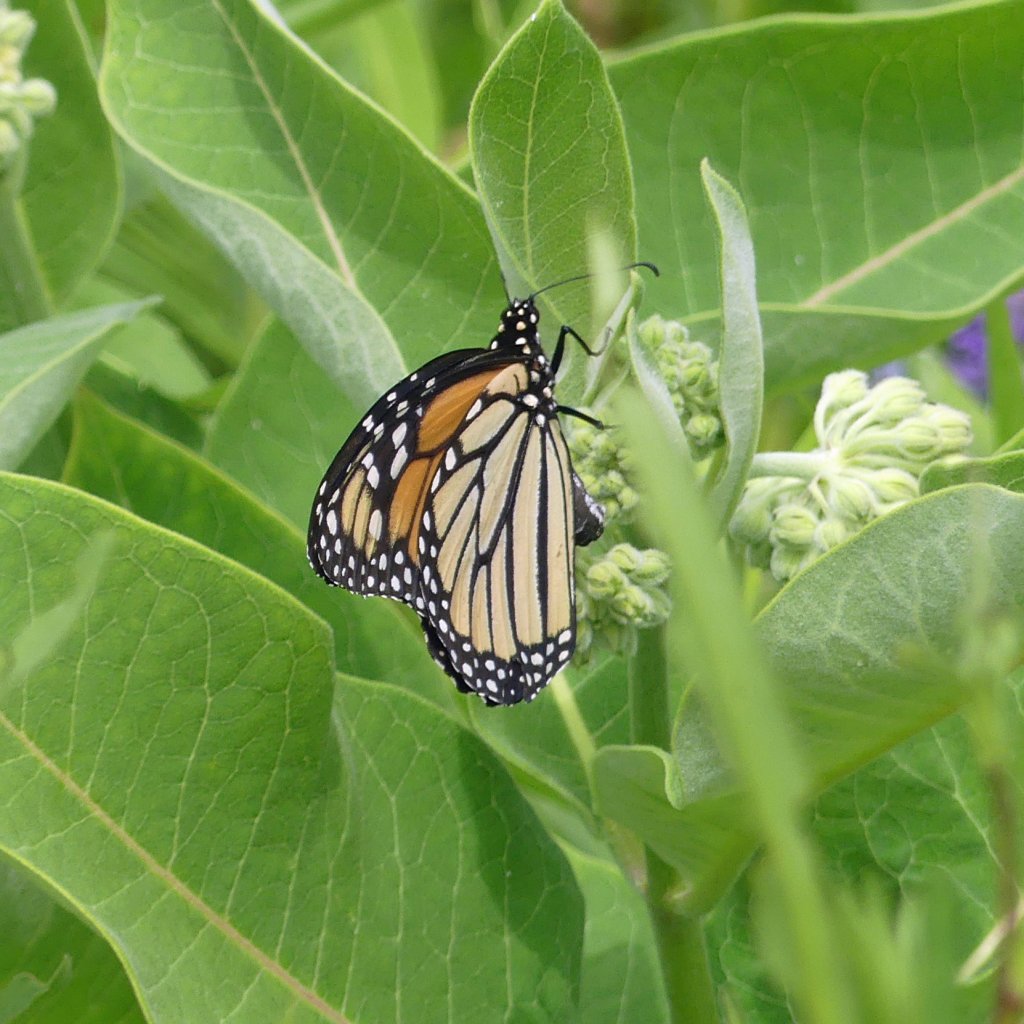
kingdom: Animalia
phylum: Arthropoda
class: Insecta
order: Lepidoptera
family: Nymphalidae
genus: Danaus
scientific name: Danaus plexippus
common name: Monarch
